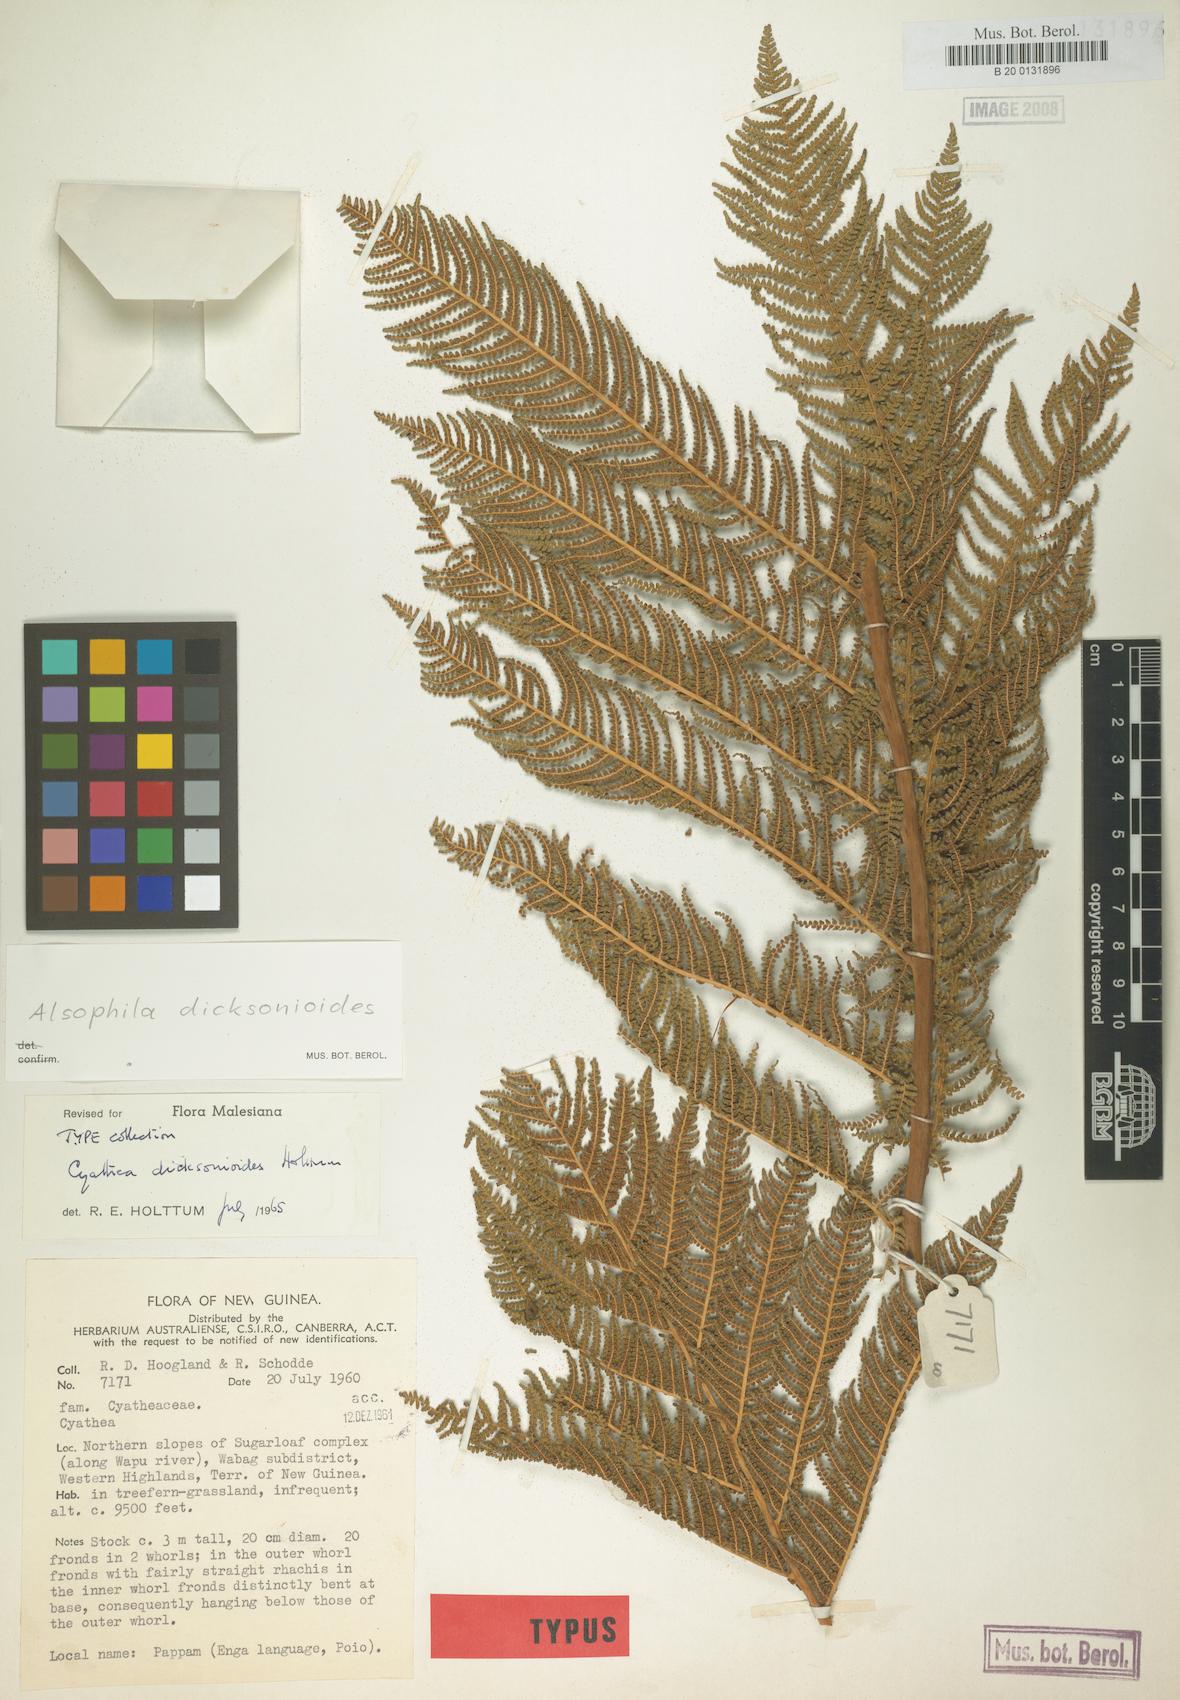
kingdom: Plantae
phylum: Tracheophyta
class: Polypodiopsida
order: Cyatheales
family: Cyatheaceae
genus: Alsophila
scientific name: Alsophila dicksonioides
